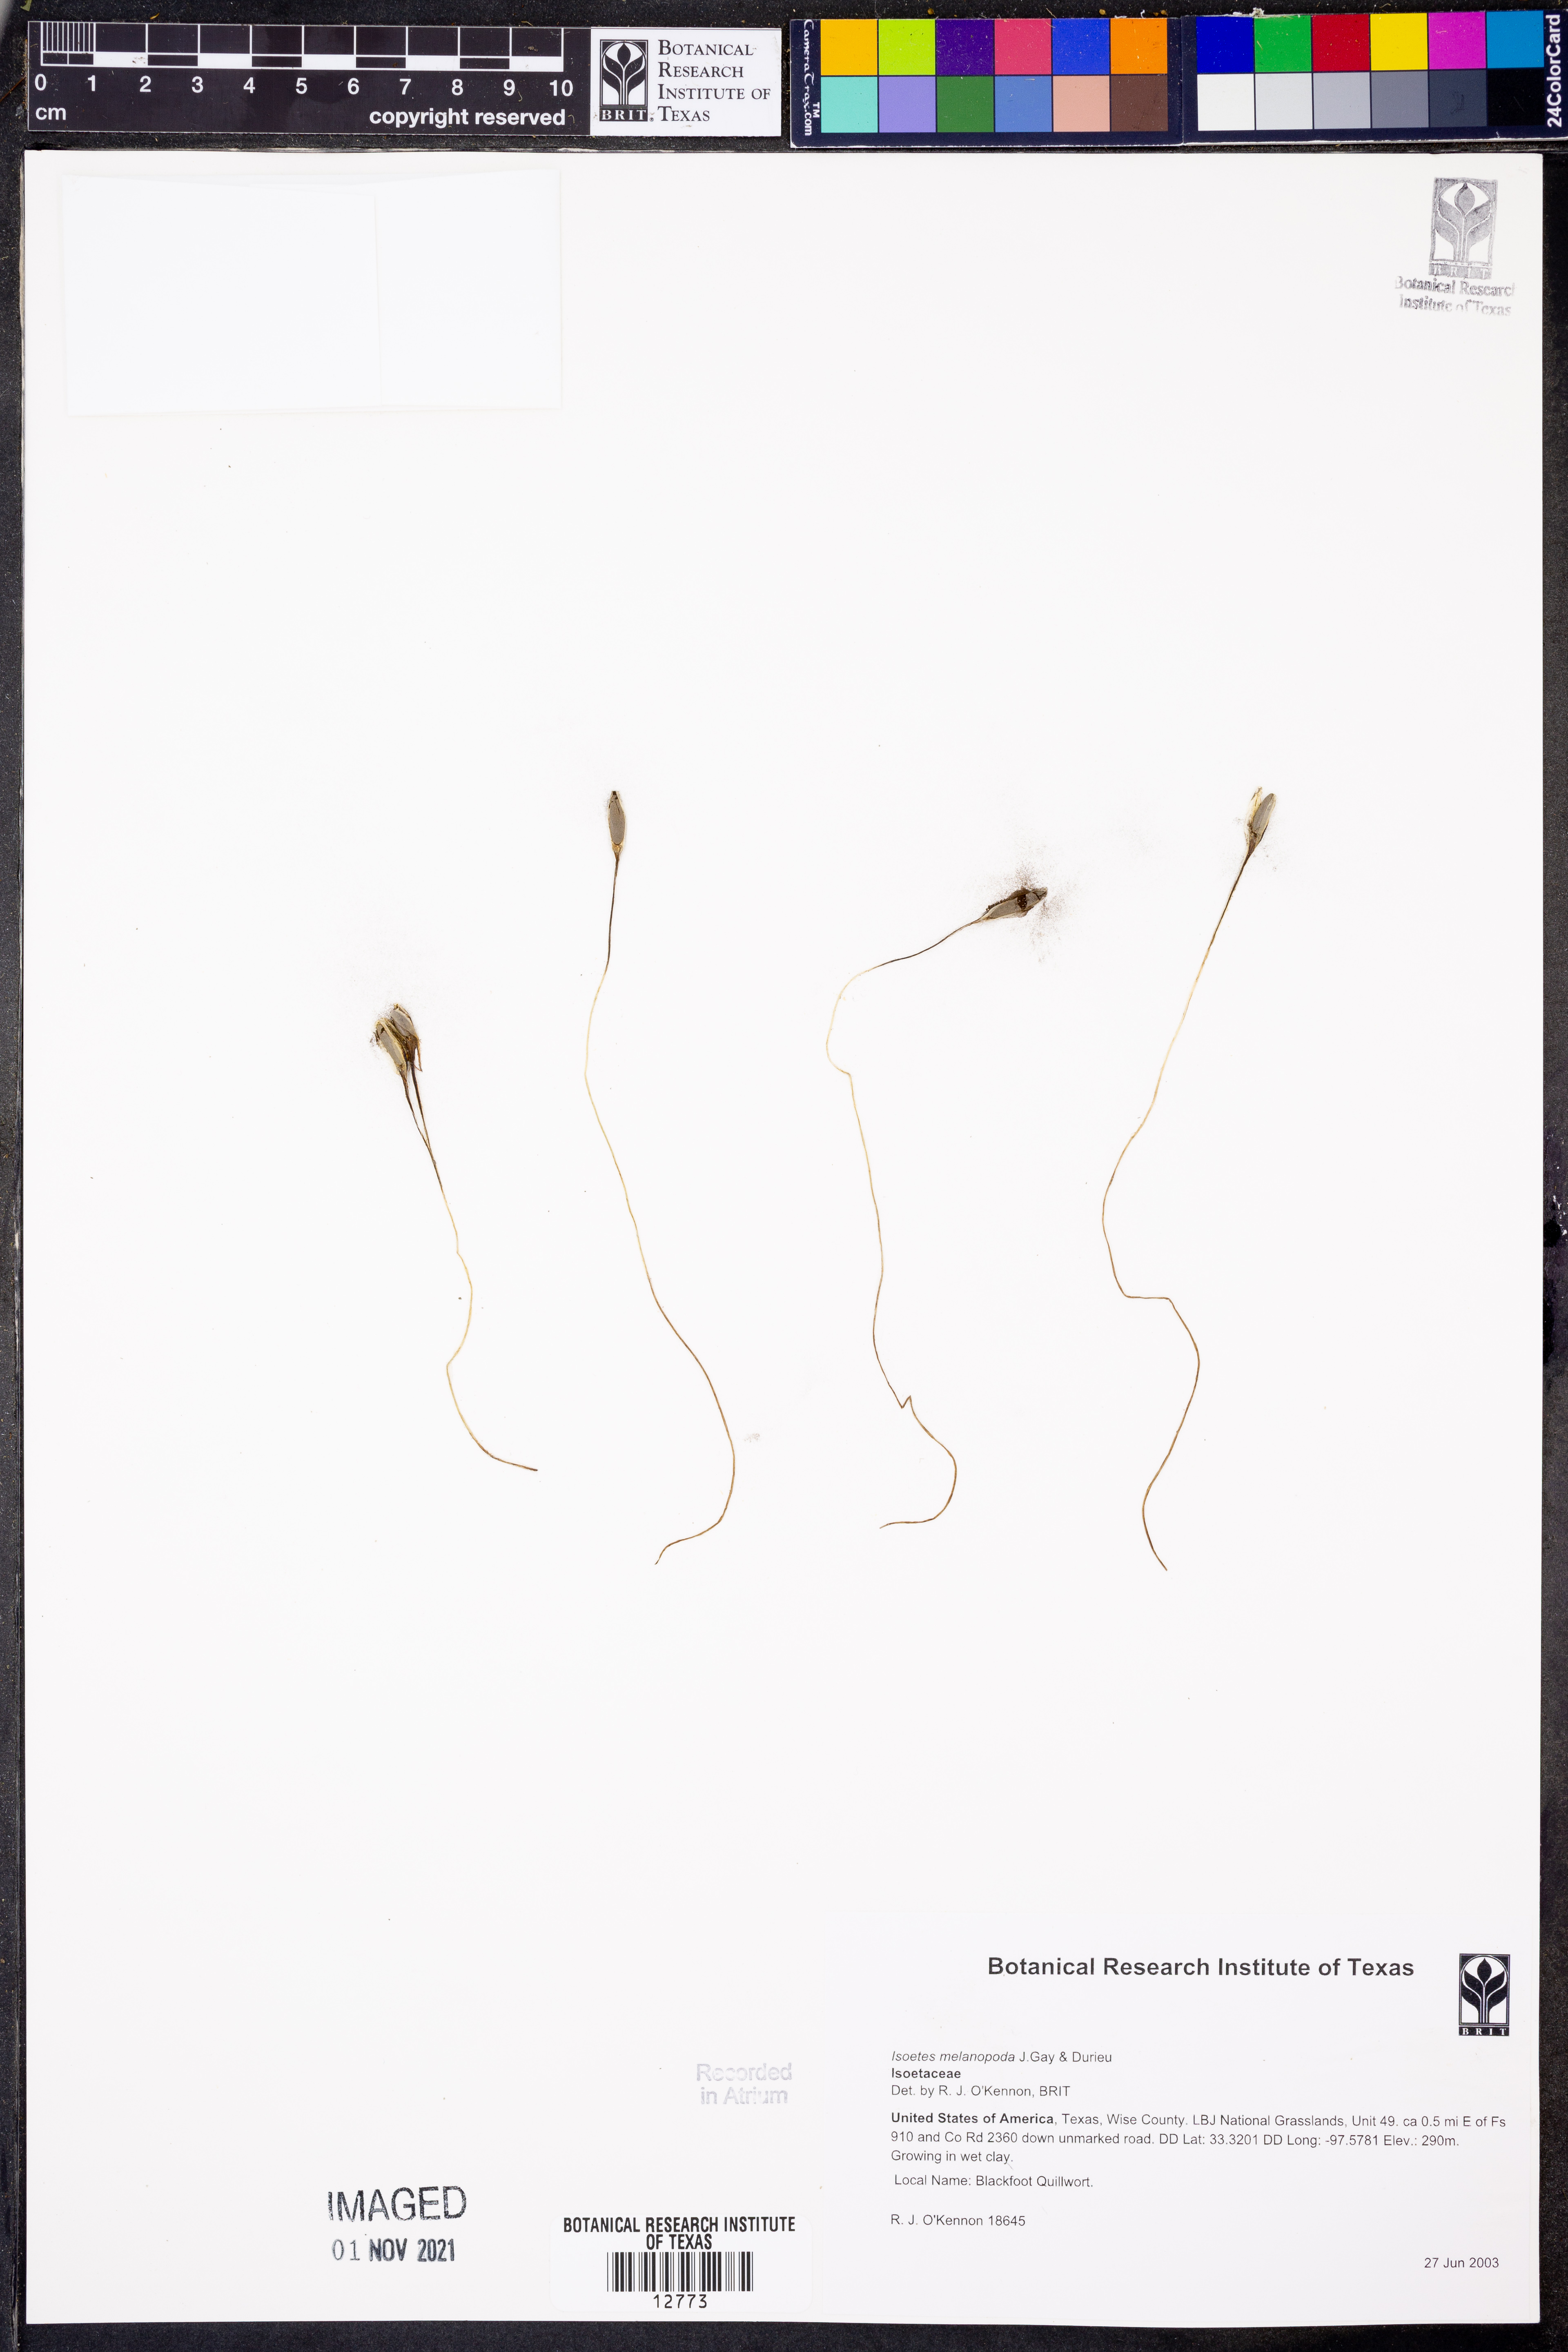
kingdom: Plantae
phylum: Tracheophyta
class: Lycopodiopsida
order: Isoetales
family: Isoetaceae
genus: Isoetes
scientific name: Isoetes melanopoda
